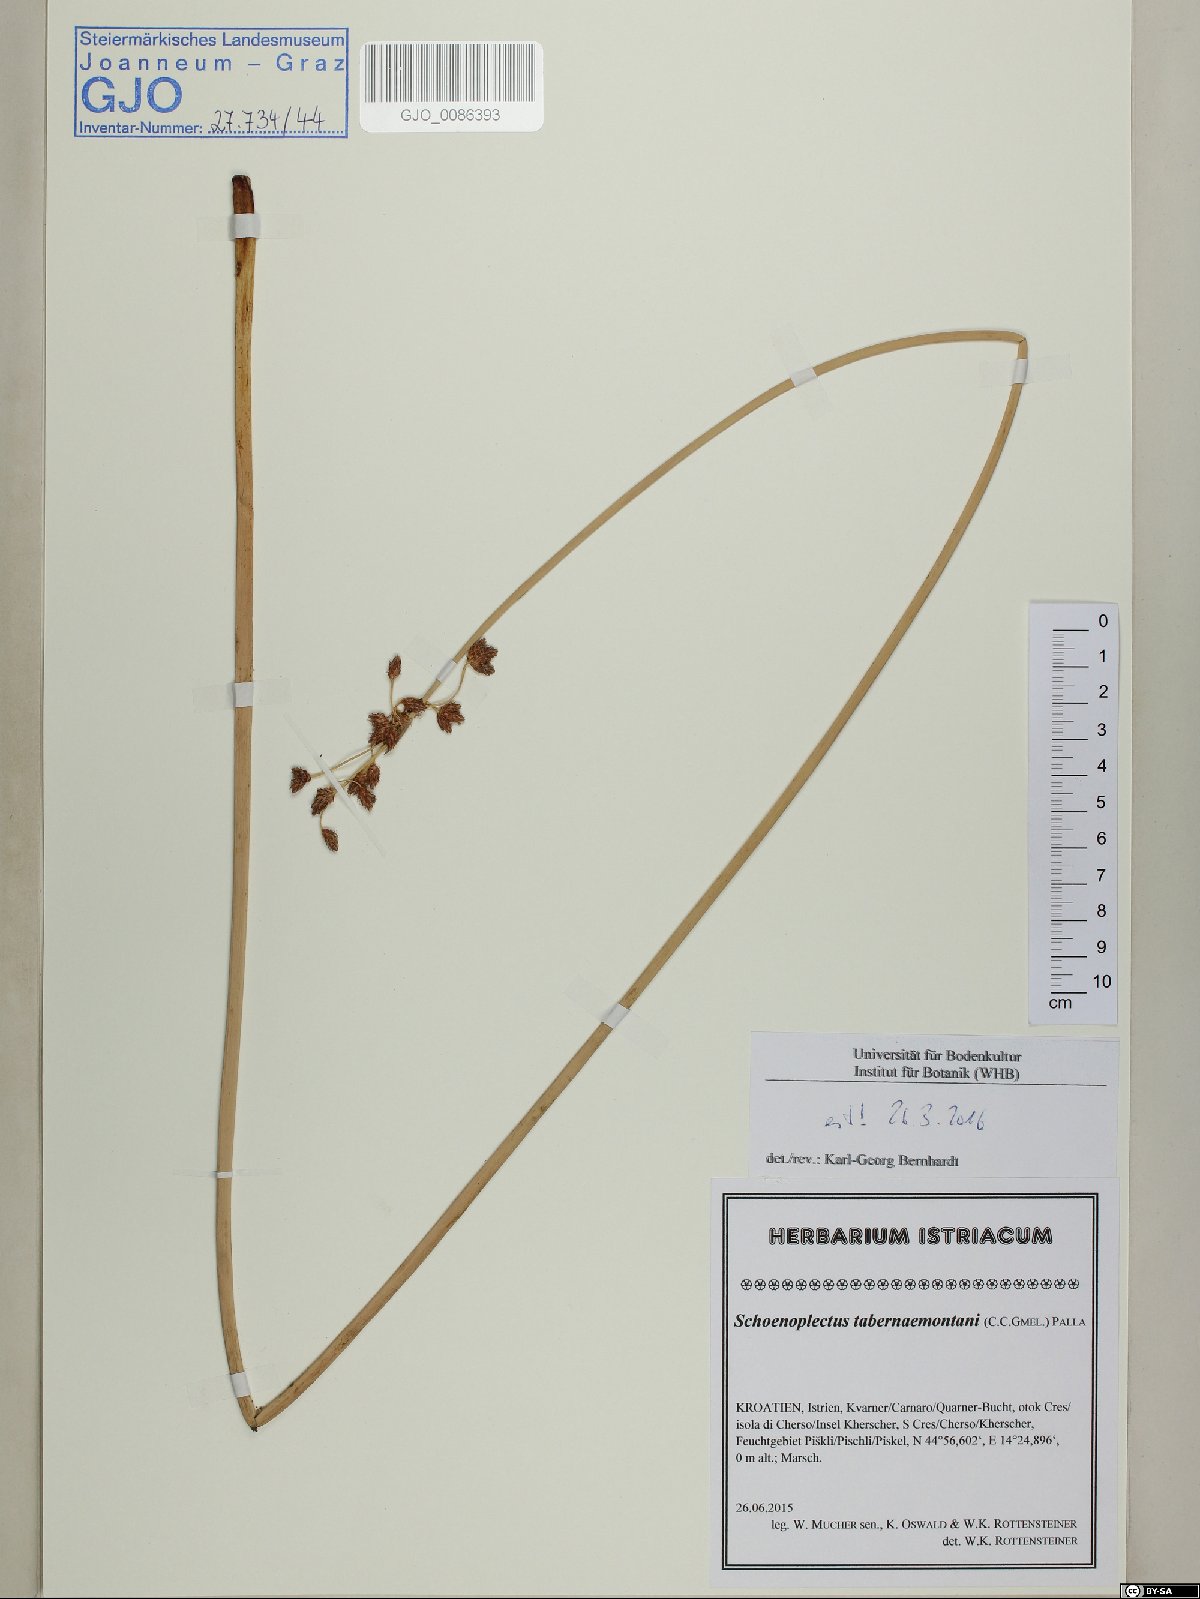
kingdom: Plantae
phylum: Tracheophyta
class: Liliopsida
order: Poales
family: Cyperaceae
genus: Schoenoplectus
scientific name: Schoenoplectus tabernaemontani
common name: Grey club-rush
